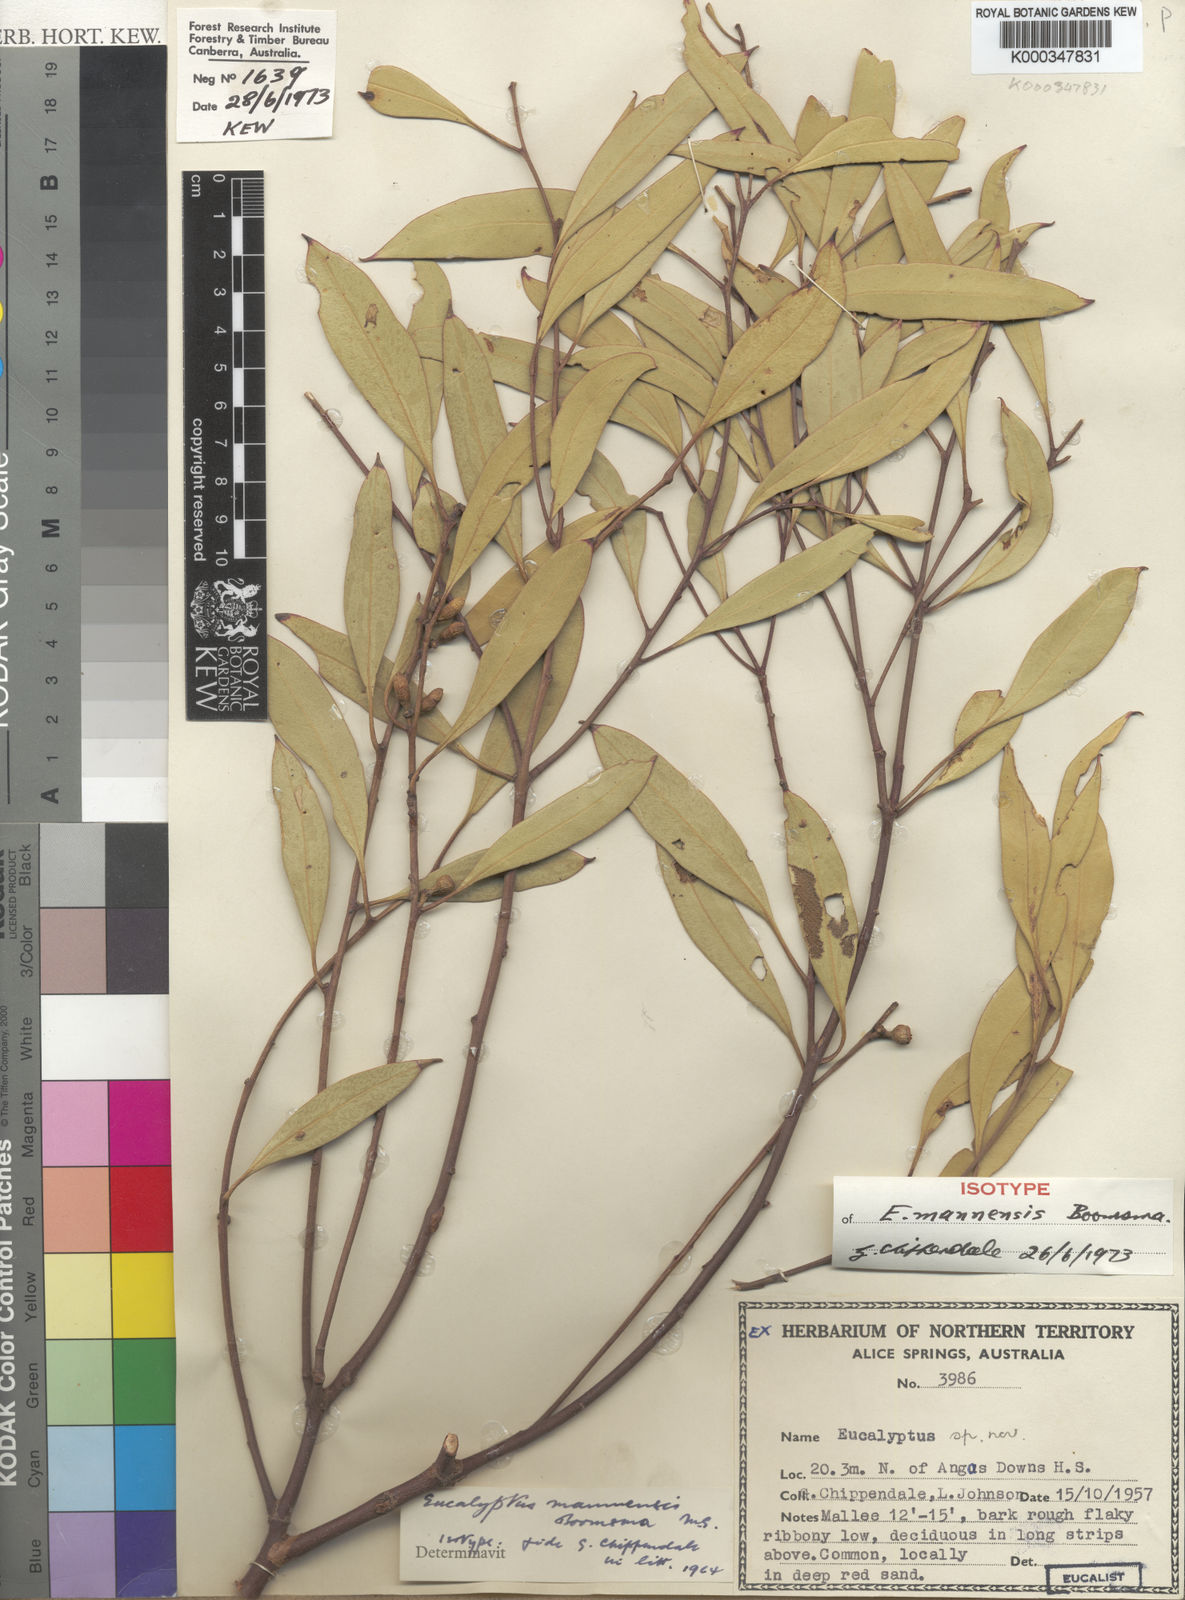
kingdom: Plantae
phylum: Tracheophyta
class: Magnoliopsida
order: Myrtales
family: Myrtaceae
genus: Eucalyptus
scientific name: Eucalyptus mannensis
